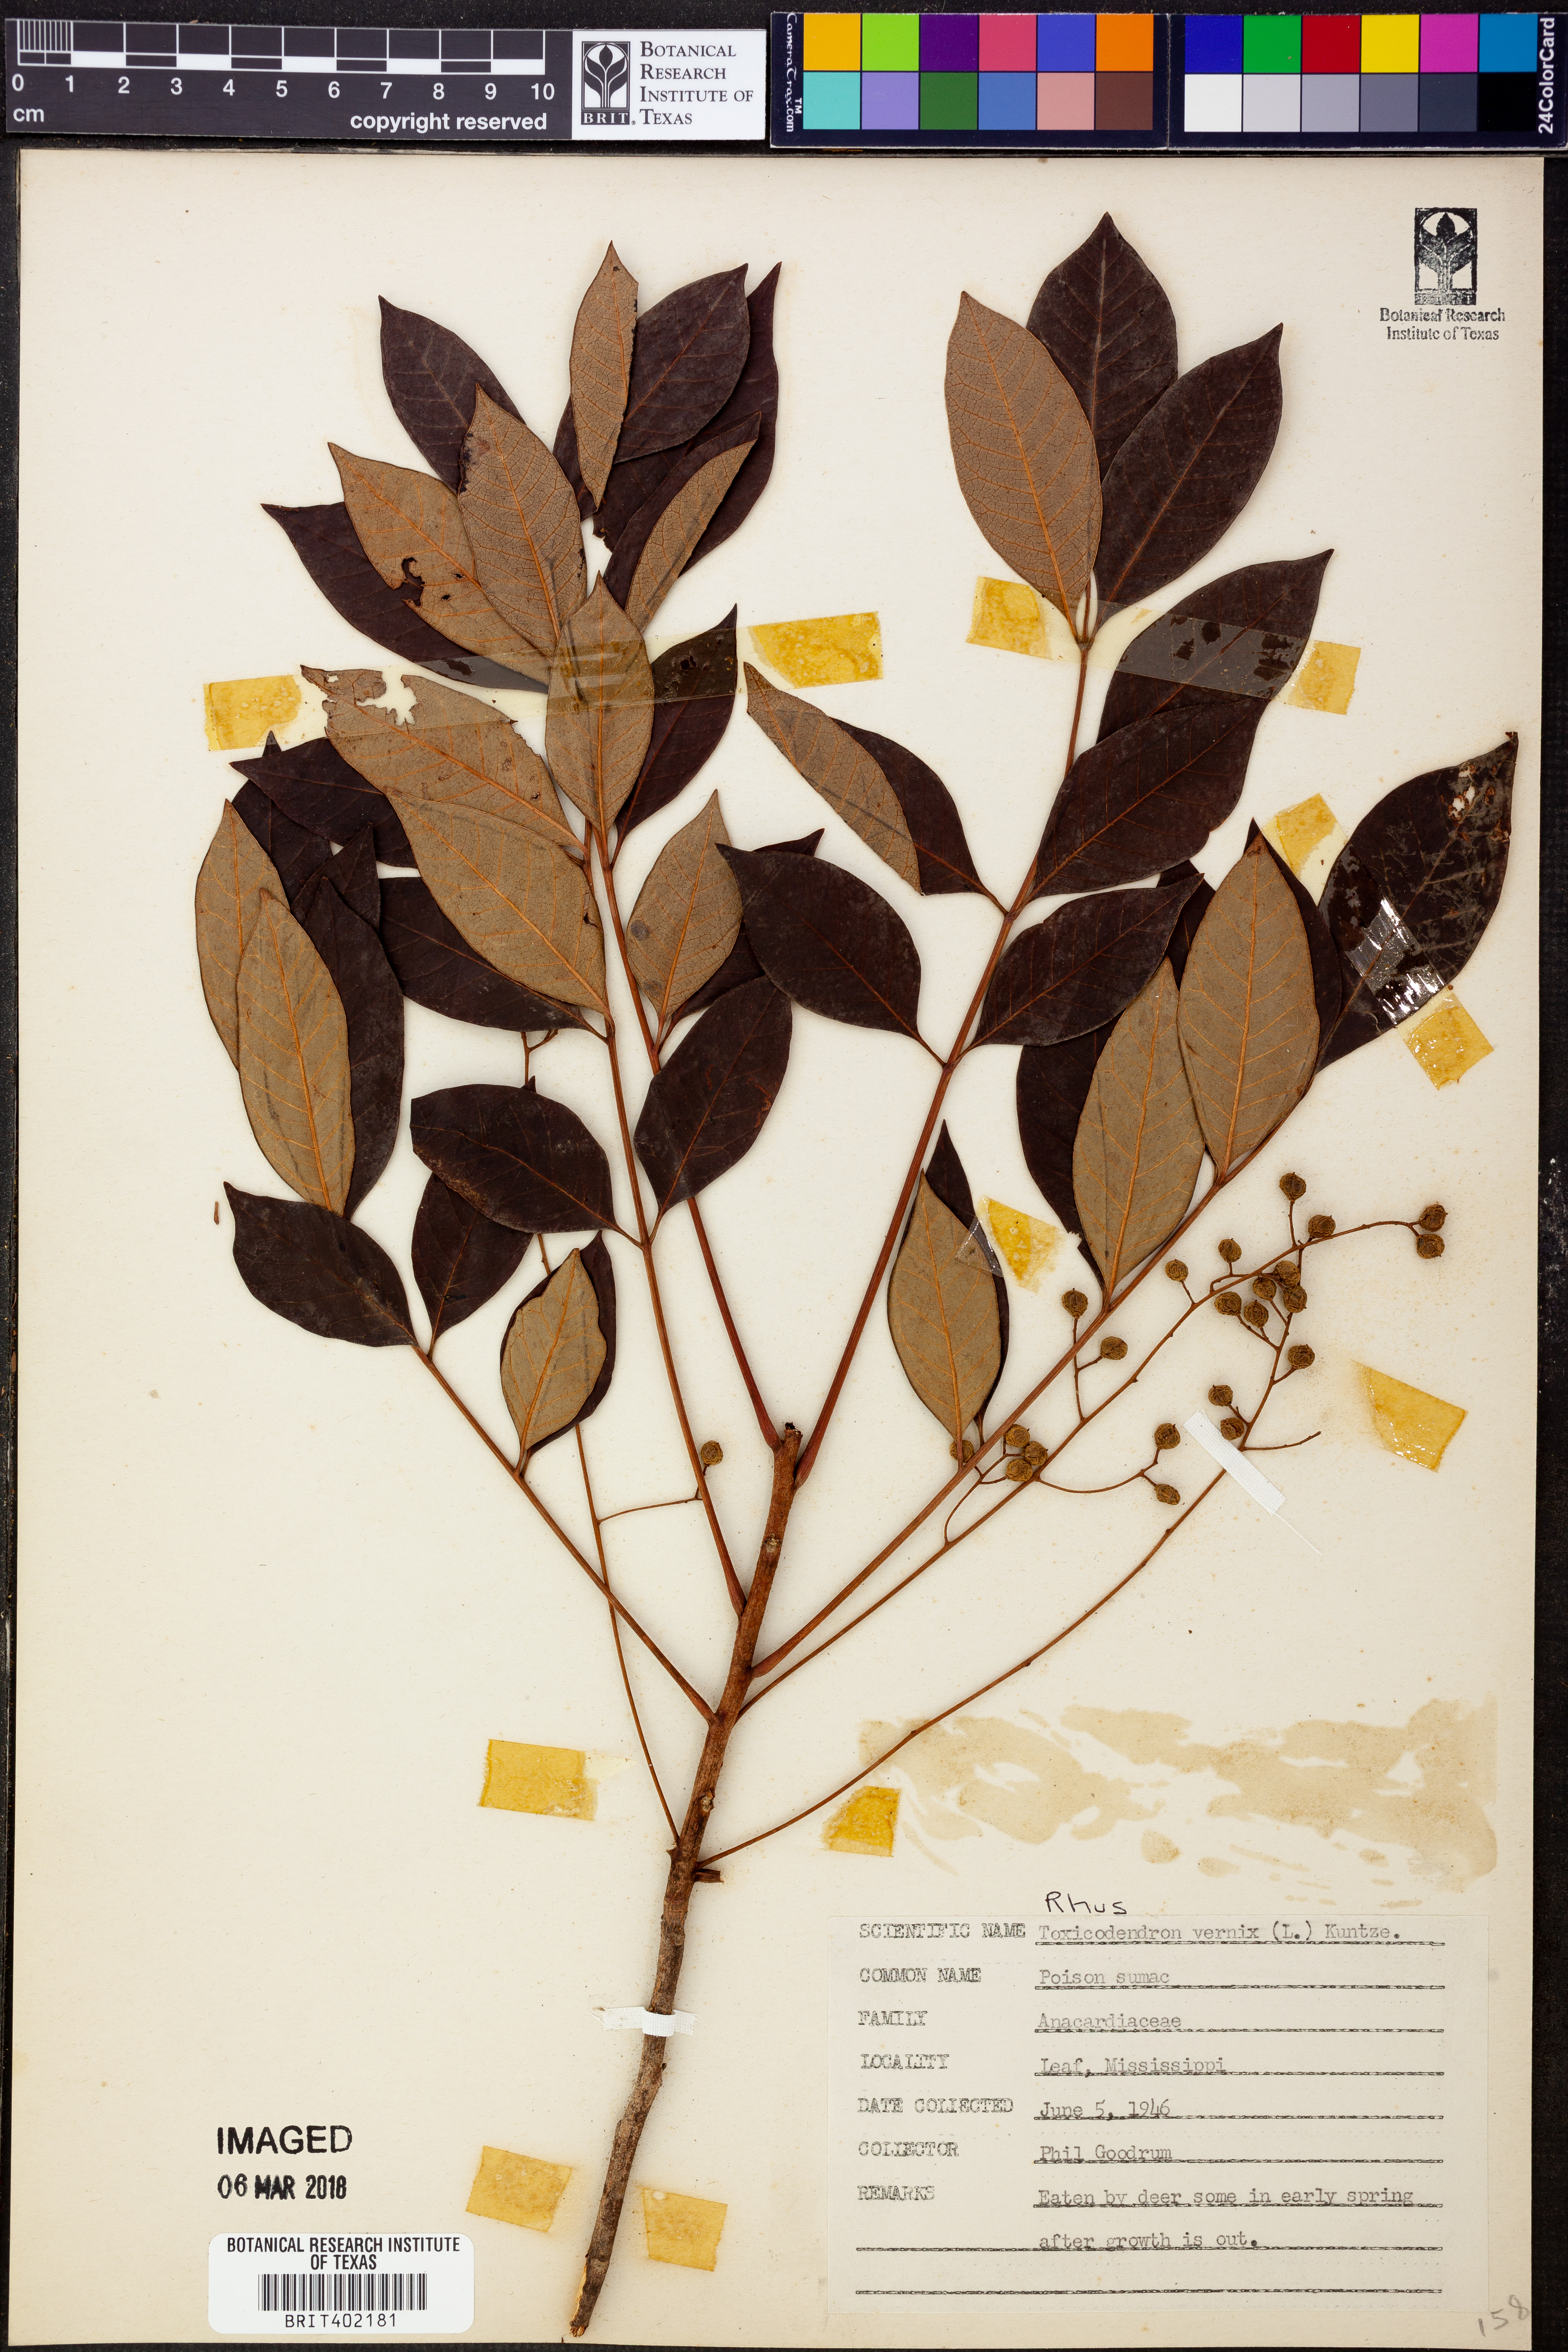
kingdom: Plantae
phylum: Tracheophyta
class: Magnoliopsida
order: Sapindales
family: Anacardiaceae
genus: Toxicodendron
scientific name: Toxicodendron vernix
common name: Poison sumac
